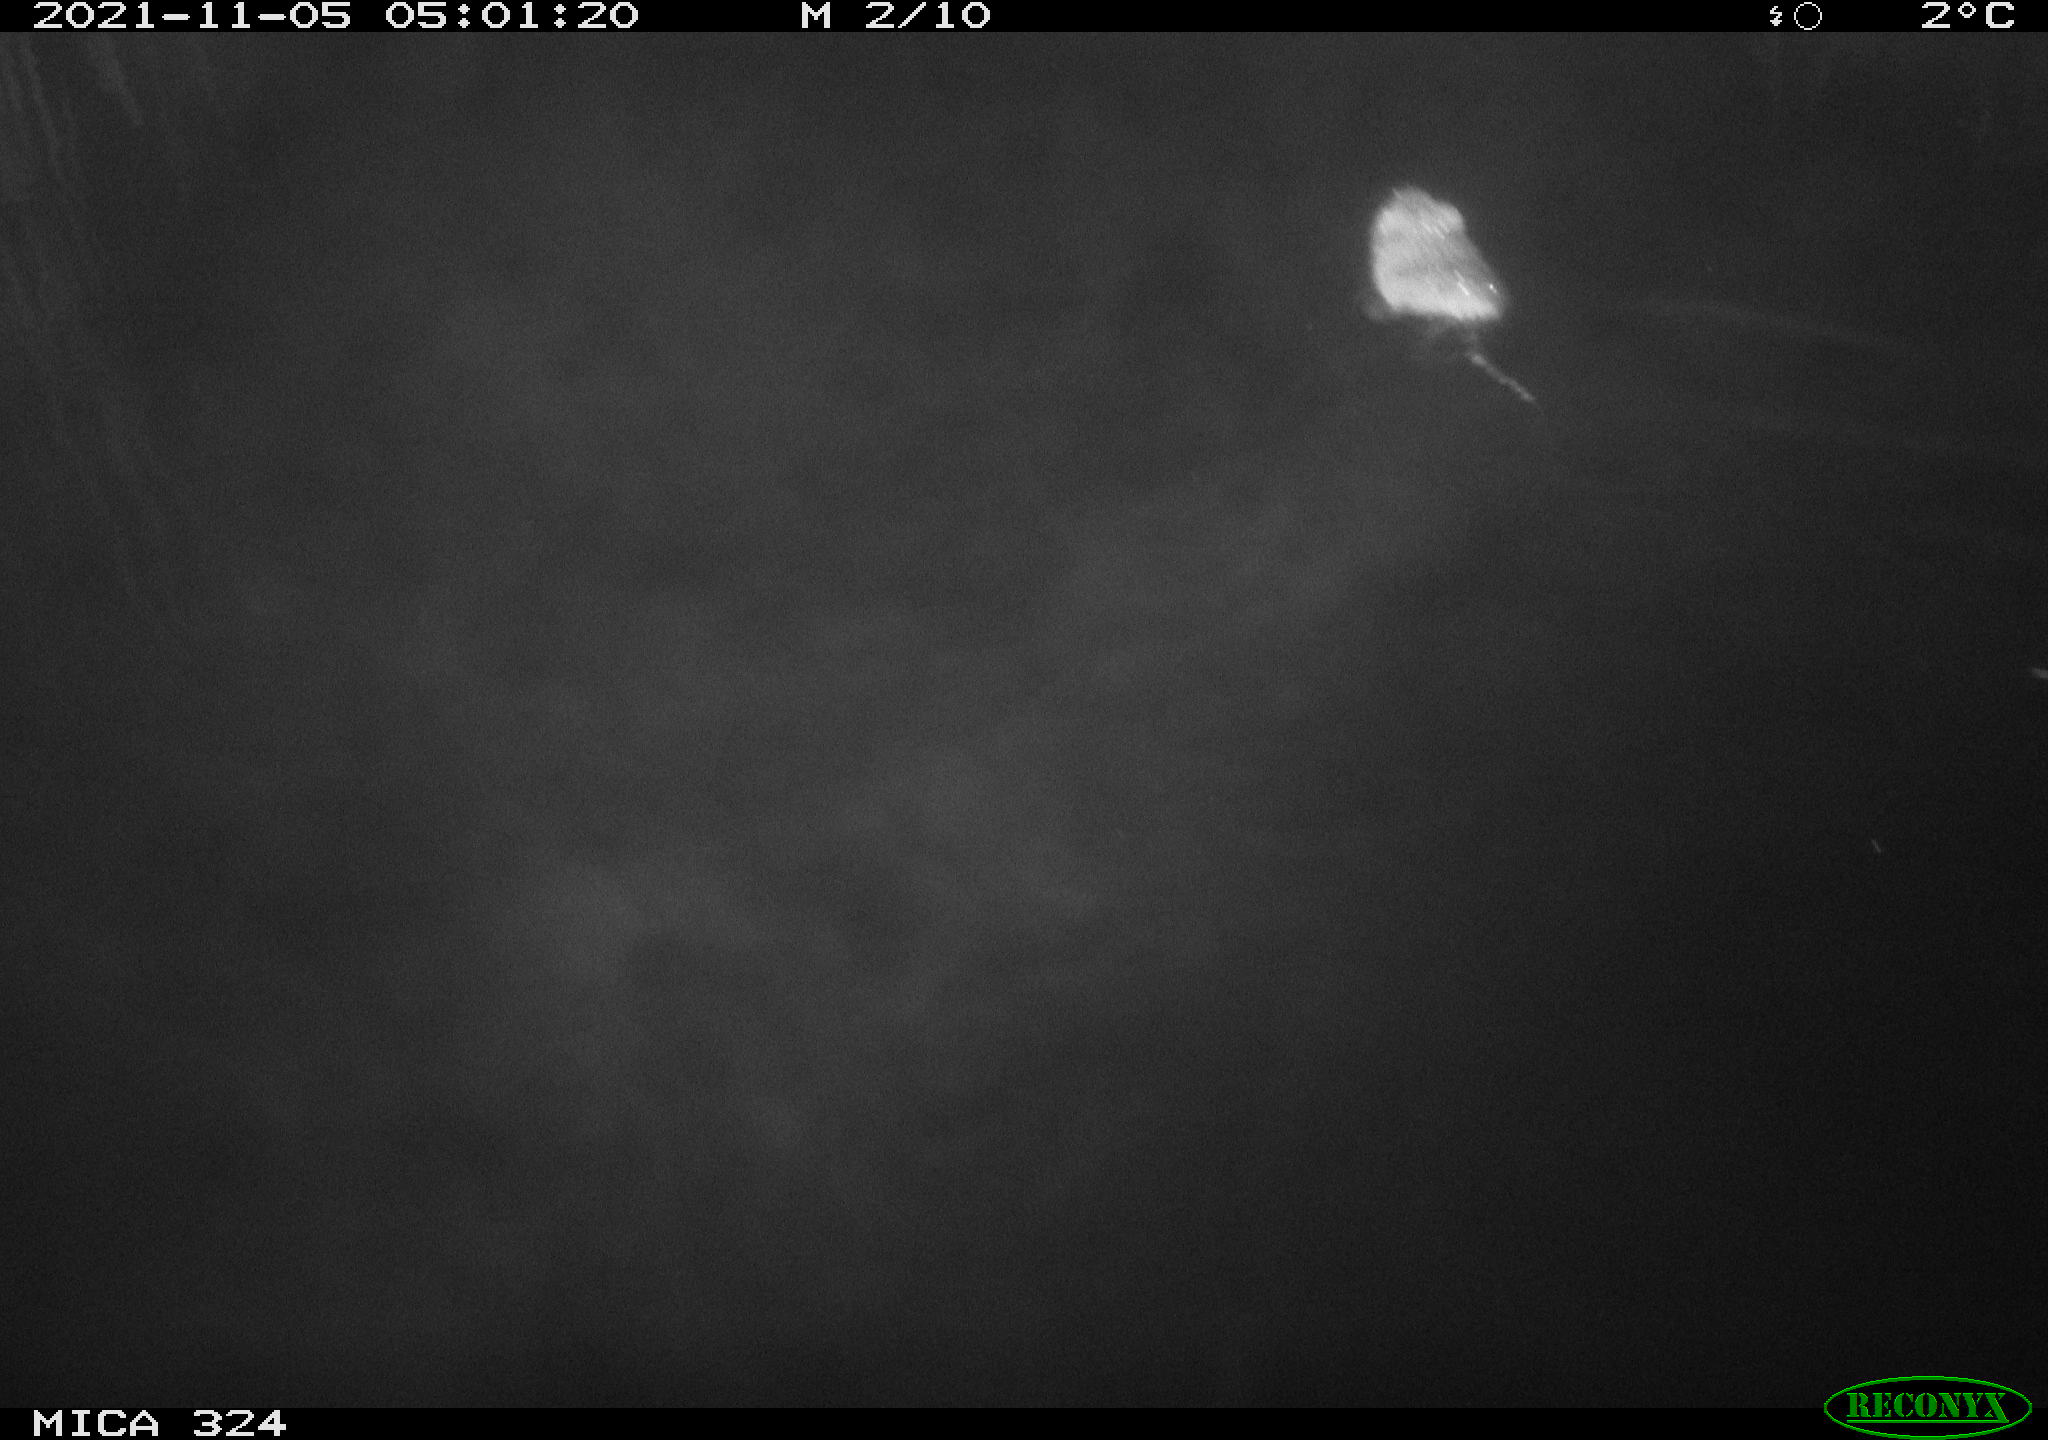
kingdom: Animalia
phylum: Chordata
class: Mammalia
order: Rodentia
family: Cricetidae
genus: Ondatra
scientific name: Ondatra zibethicus
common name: Muskrat
